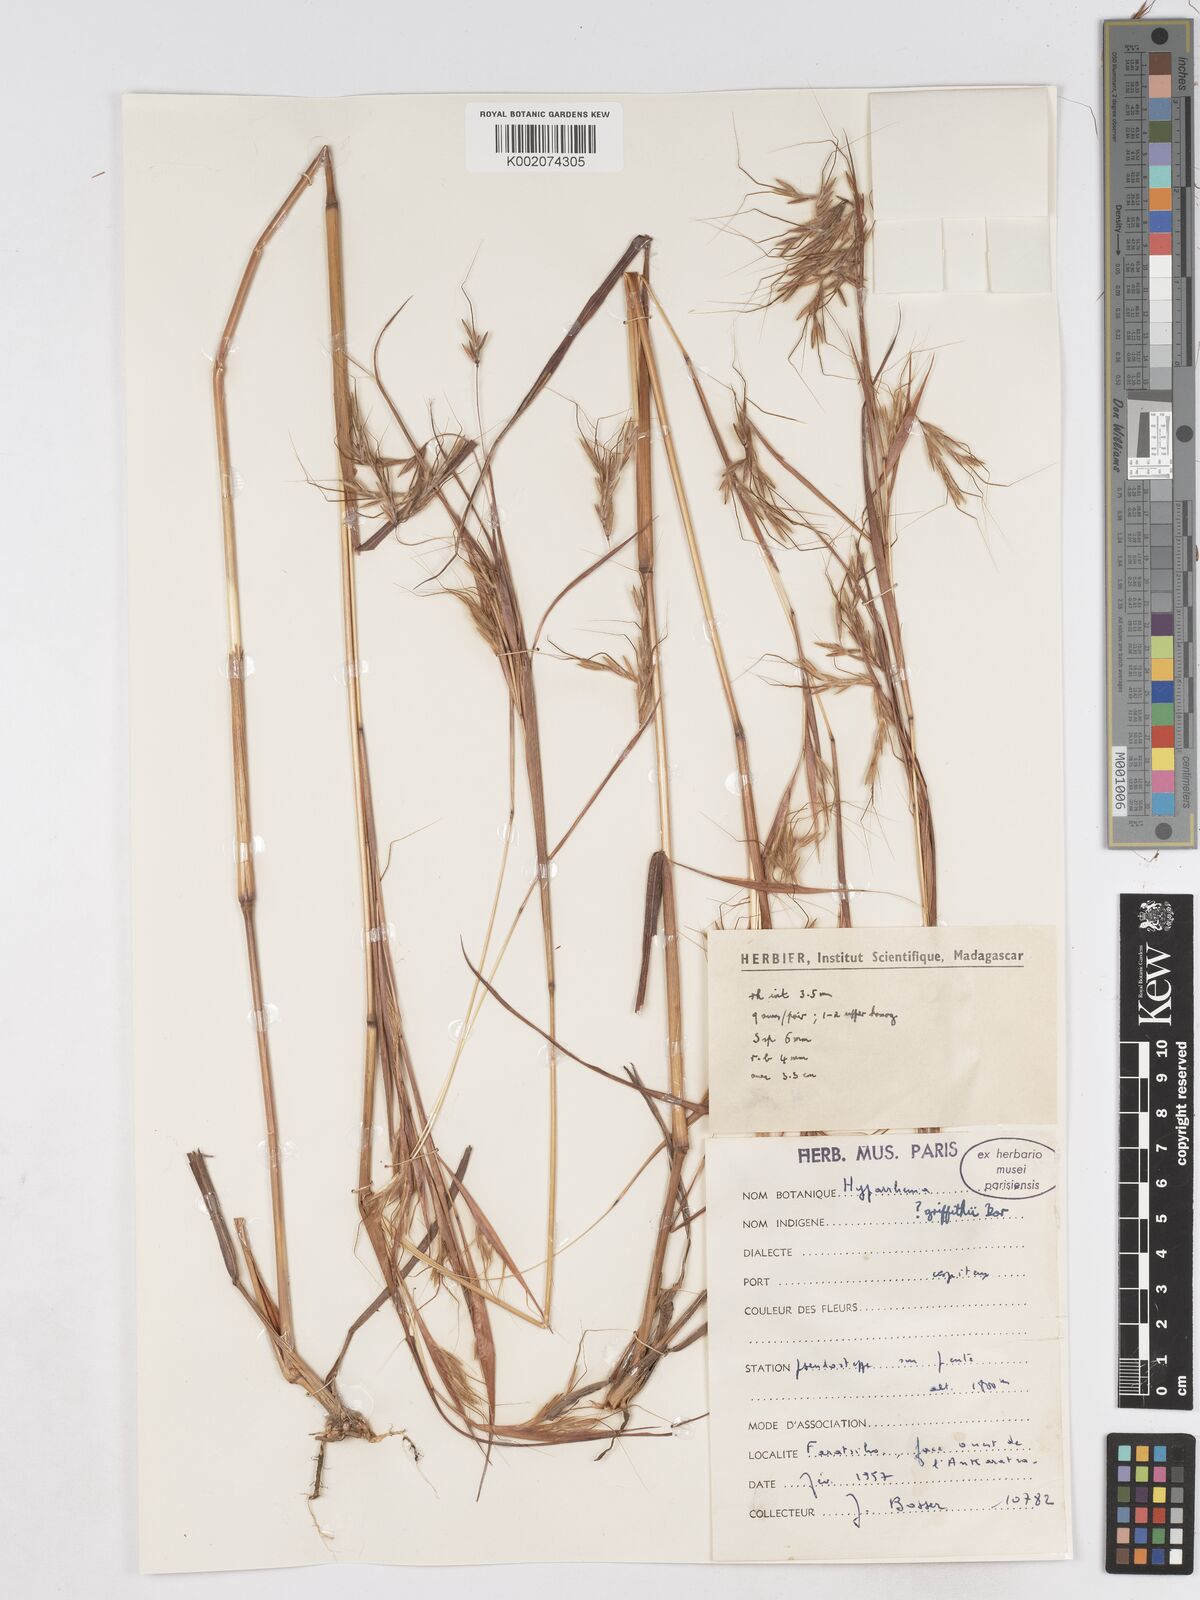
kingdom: Plantae
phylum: Tracheophyta
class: Liliopsida
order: Poales
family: Poaceae
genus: Hyparrhenia
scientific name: Hyparrhenia griffithii
